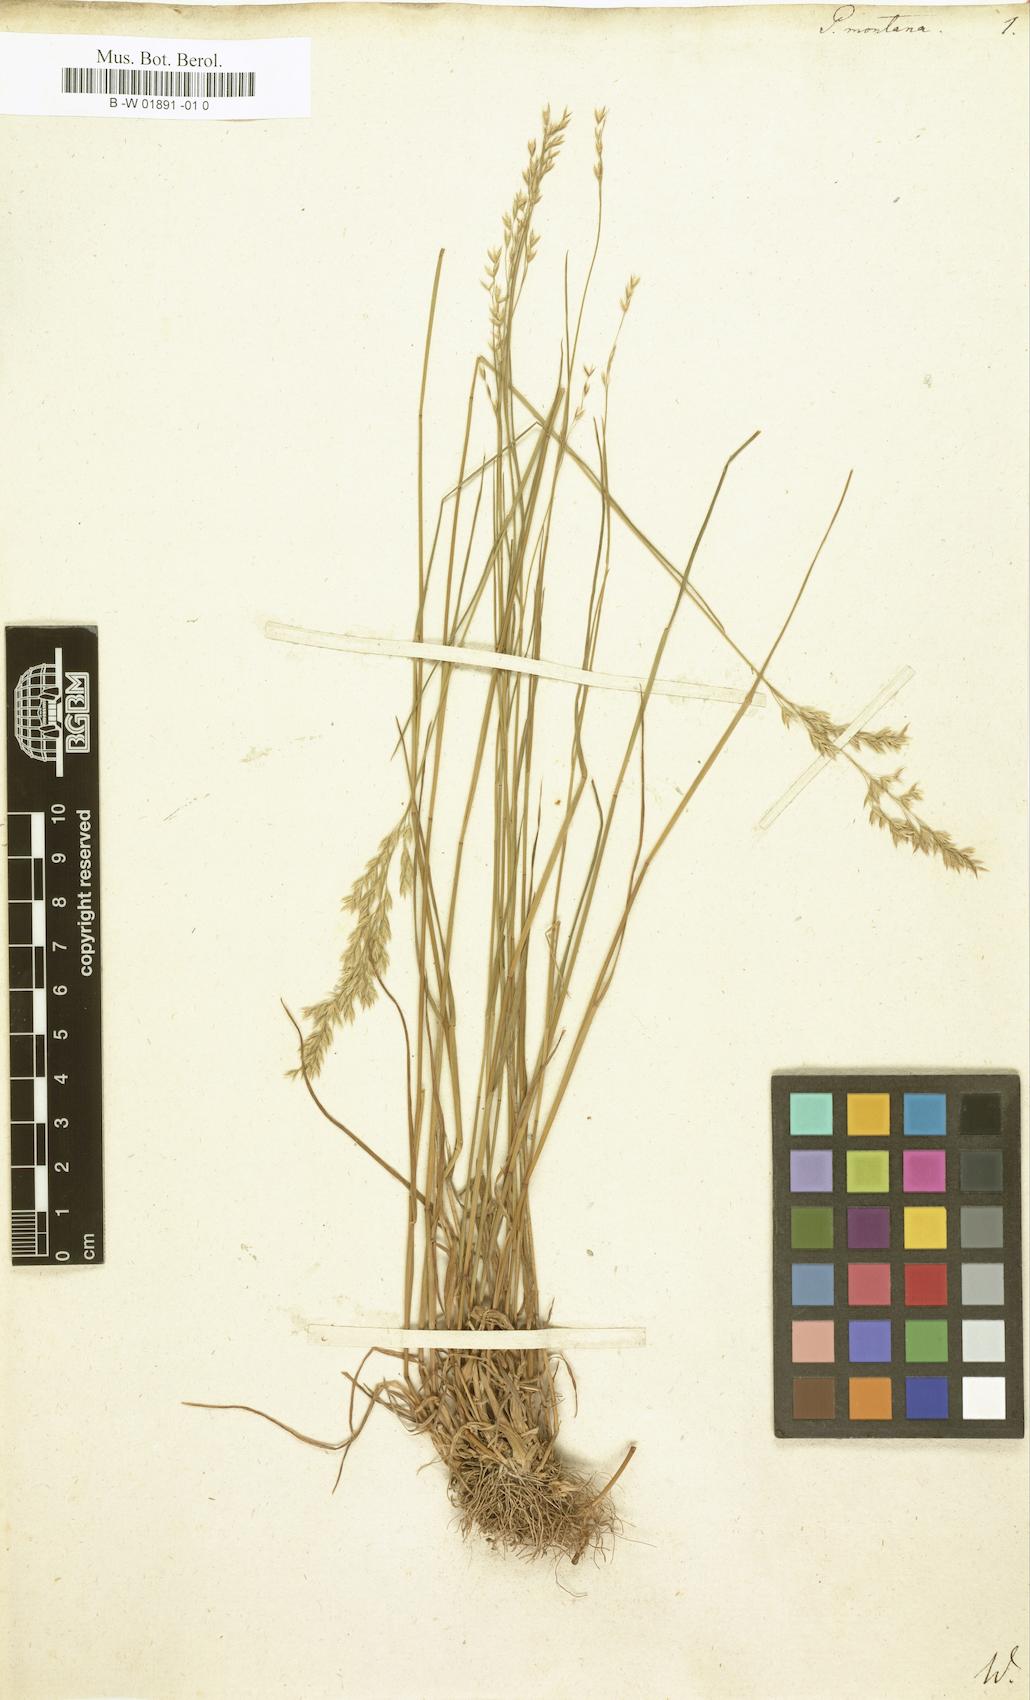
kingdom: Plantae
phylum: Tracheophyta
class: Liliopsida
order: Poales
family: Poaceae
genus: Poa
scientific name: Poa cordemoyi
